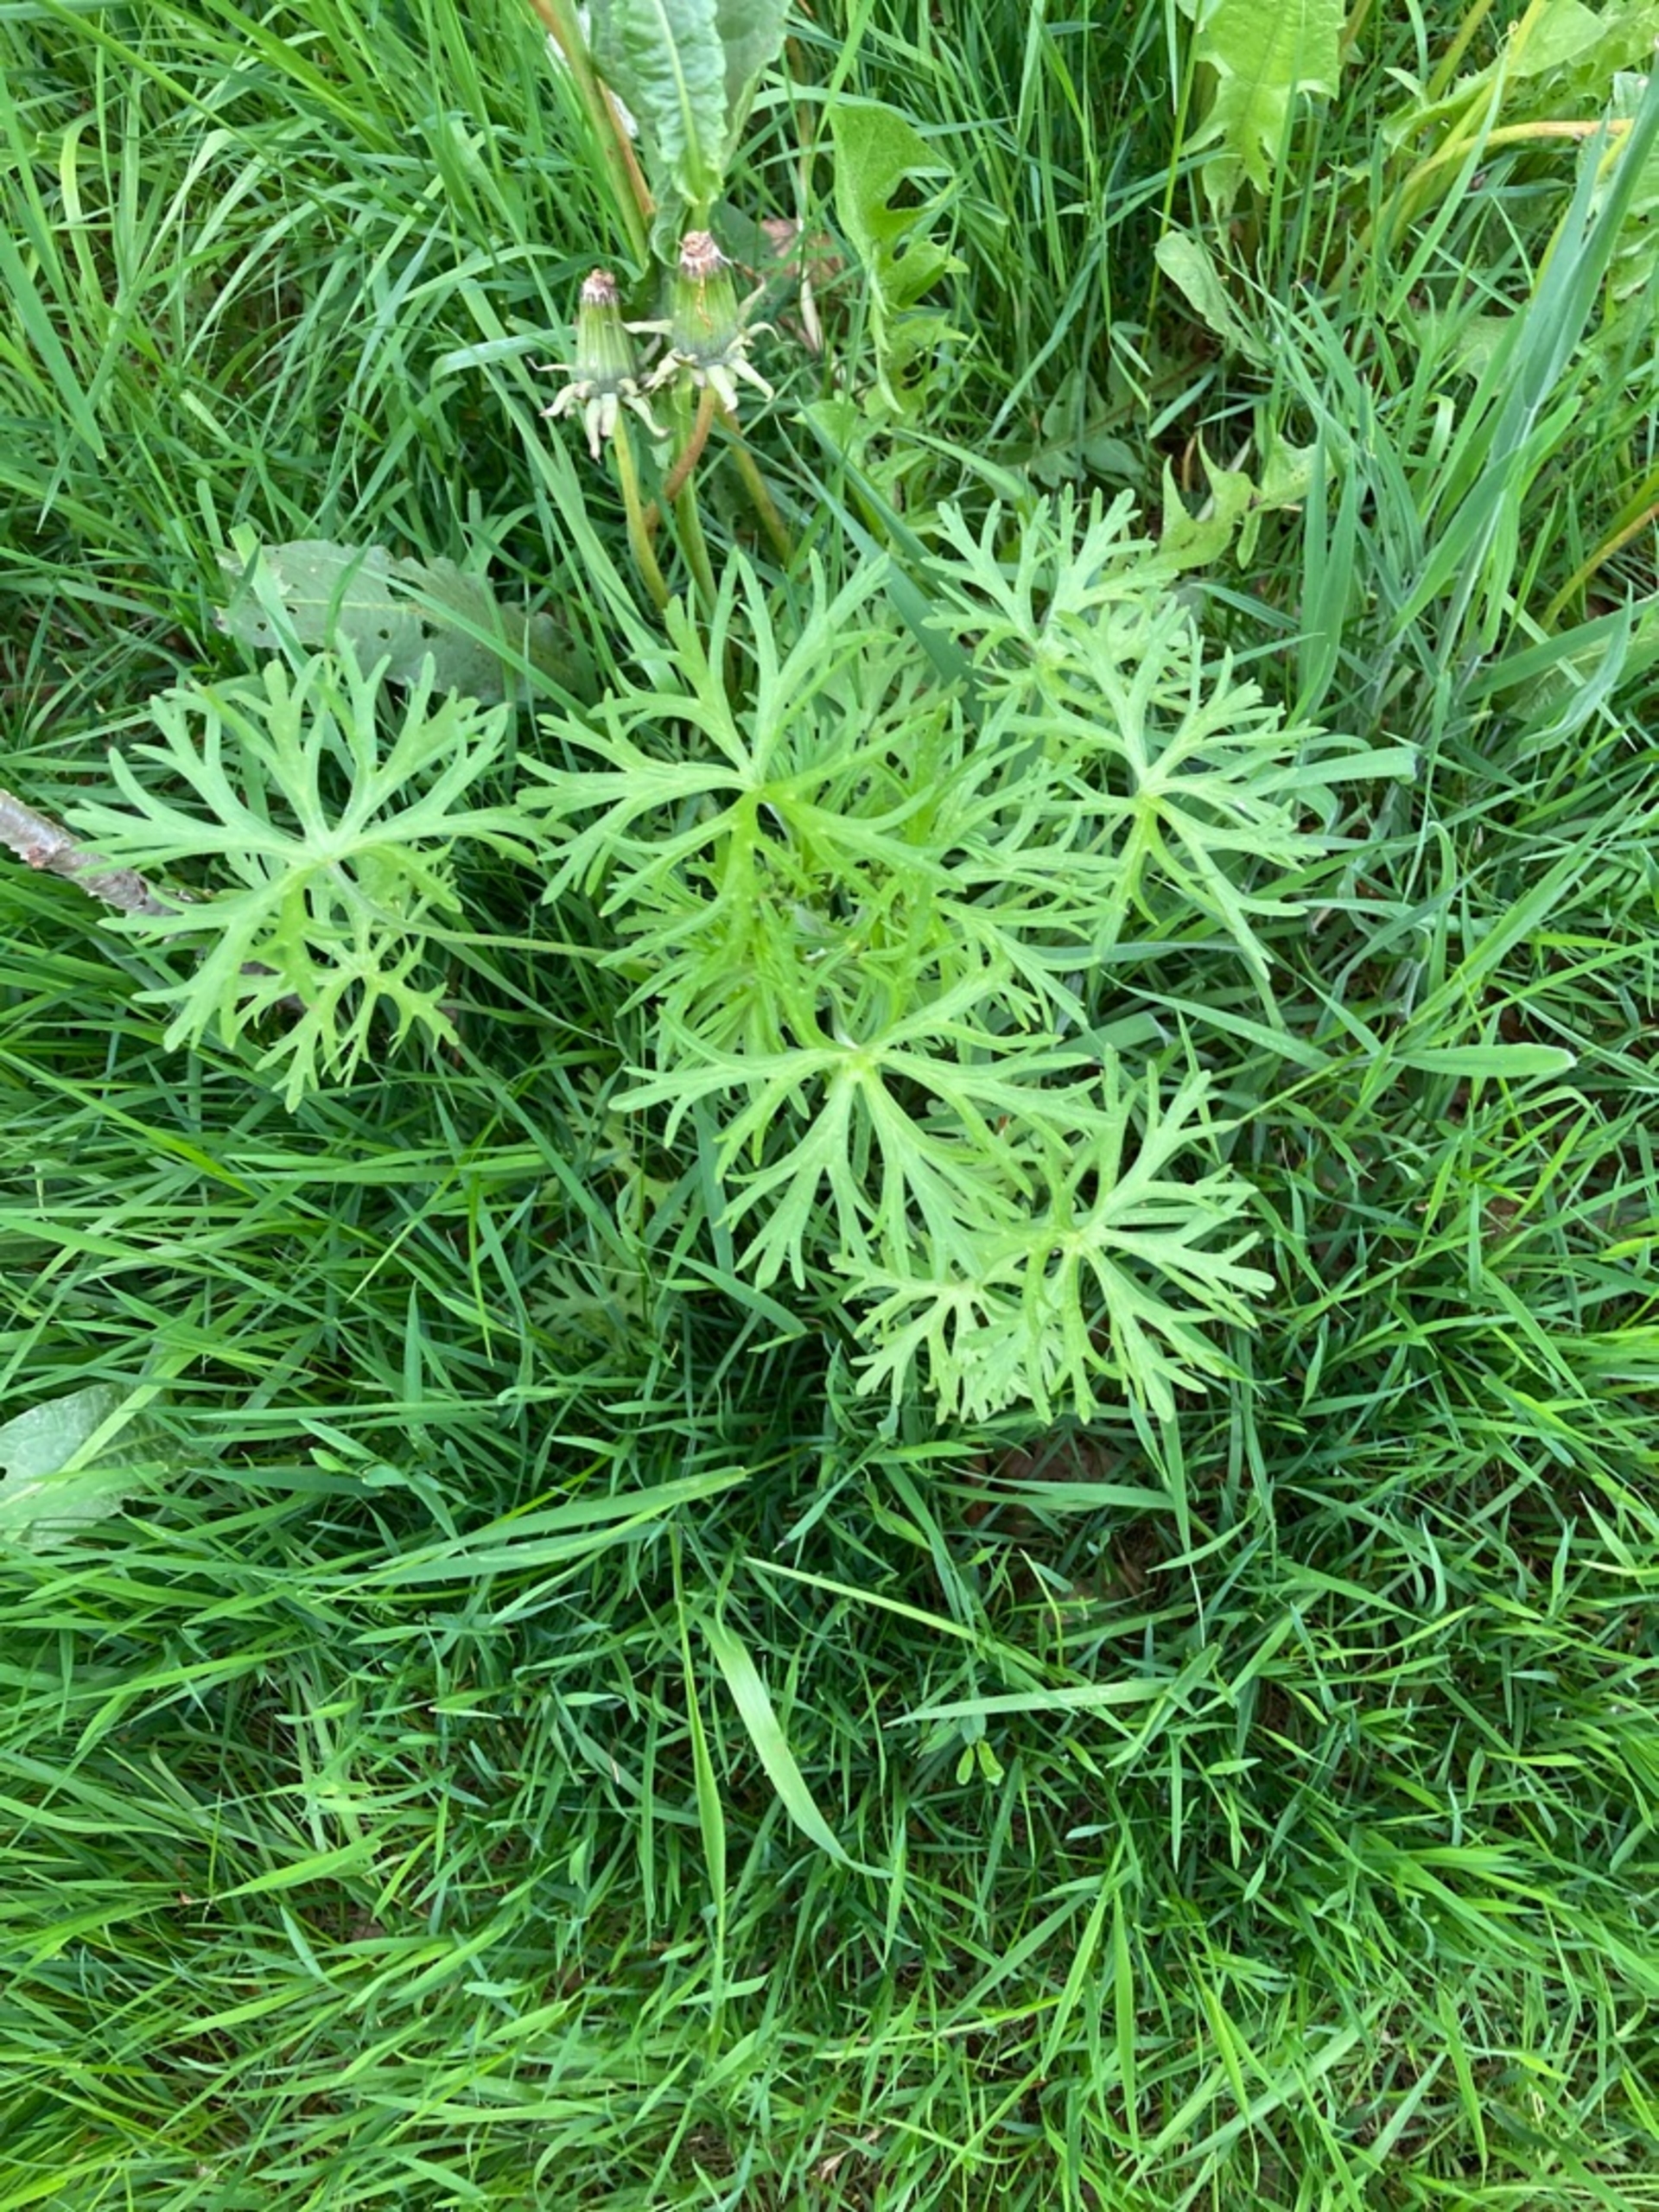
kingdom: Plantae
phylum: Tracheophyta
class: Magnoliopsida
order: Geraniales
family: Geraniaceae
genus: Geranium
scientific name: Geranium dissectum
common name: Kløftet storkenæb
